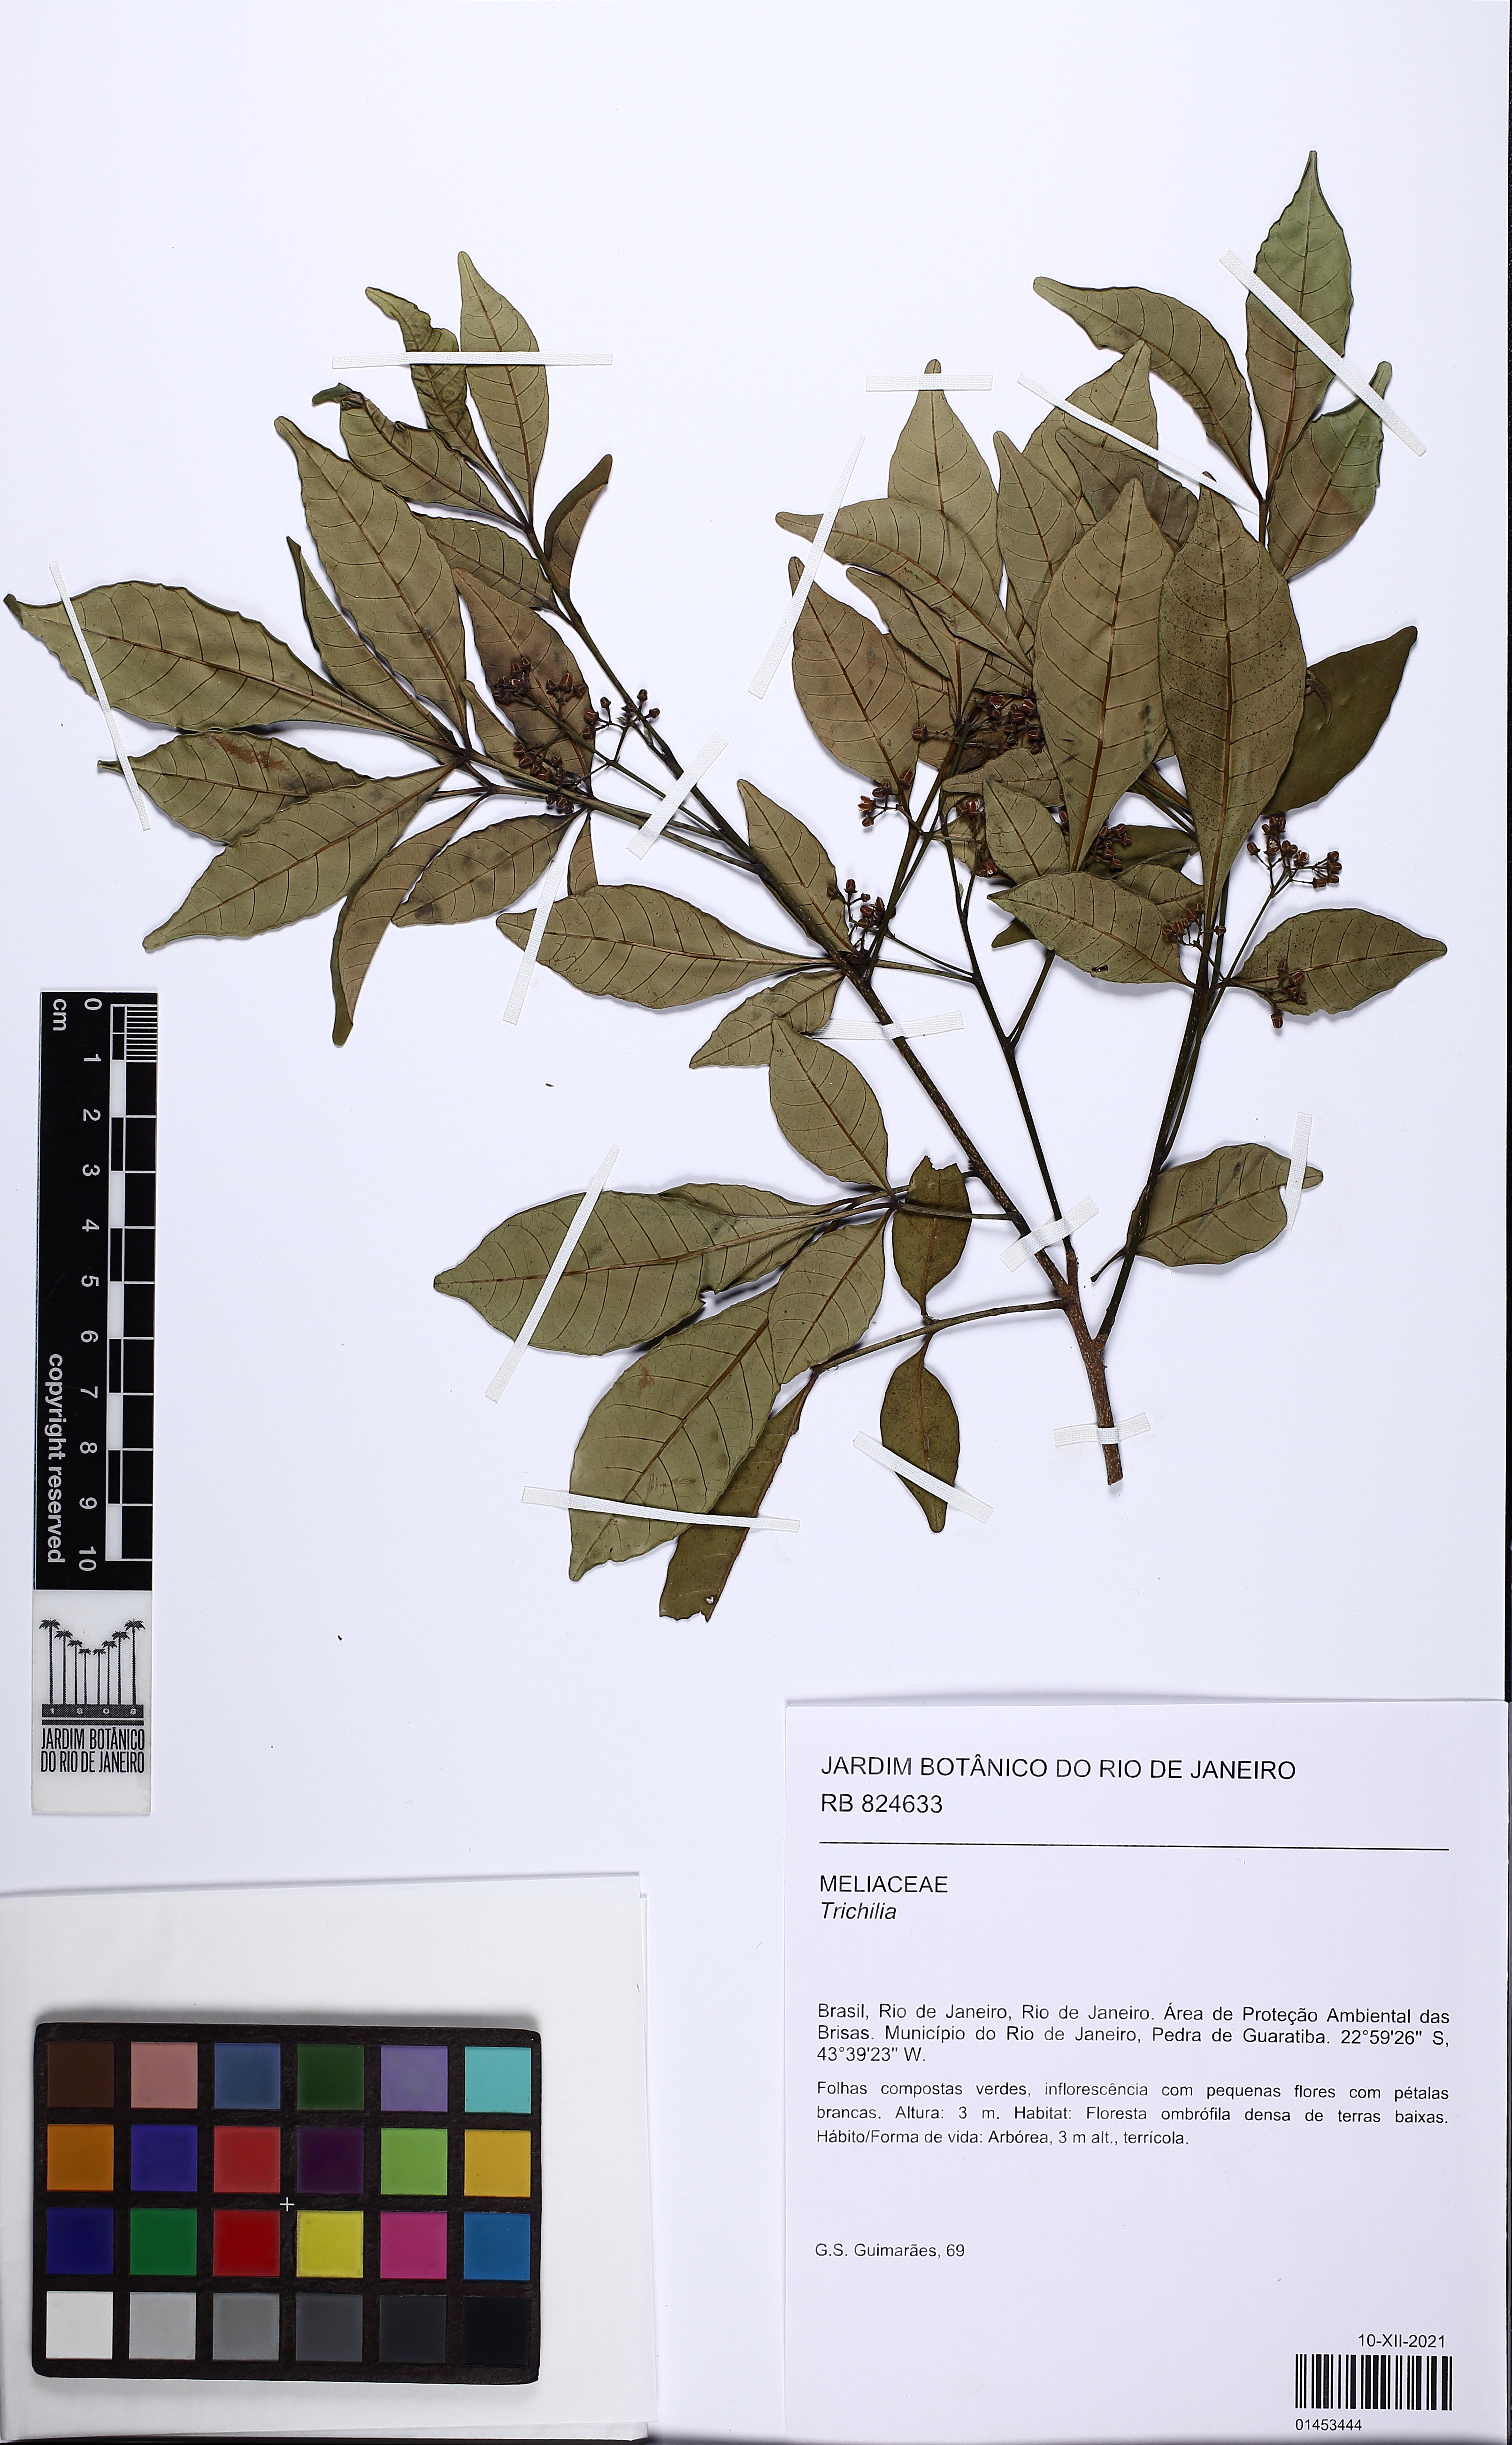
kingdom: Plantae
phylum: Tracheophyta
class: Magnoliopsida
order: Sapindales
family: Meliaceae
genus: Trichilia
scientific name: Trichilia
